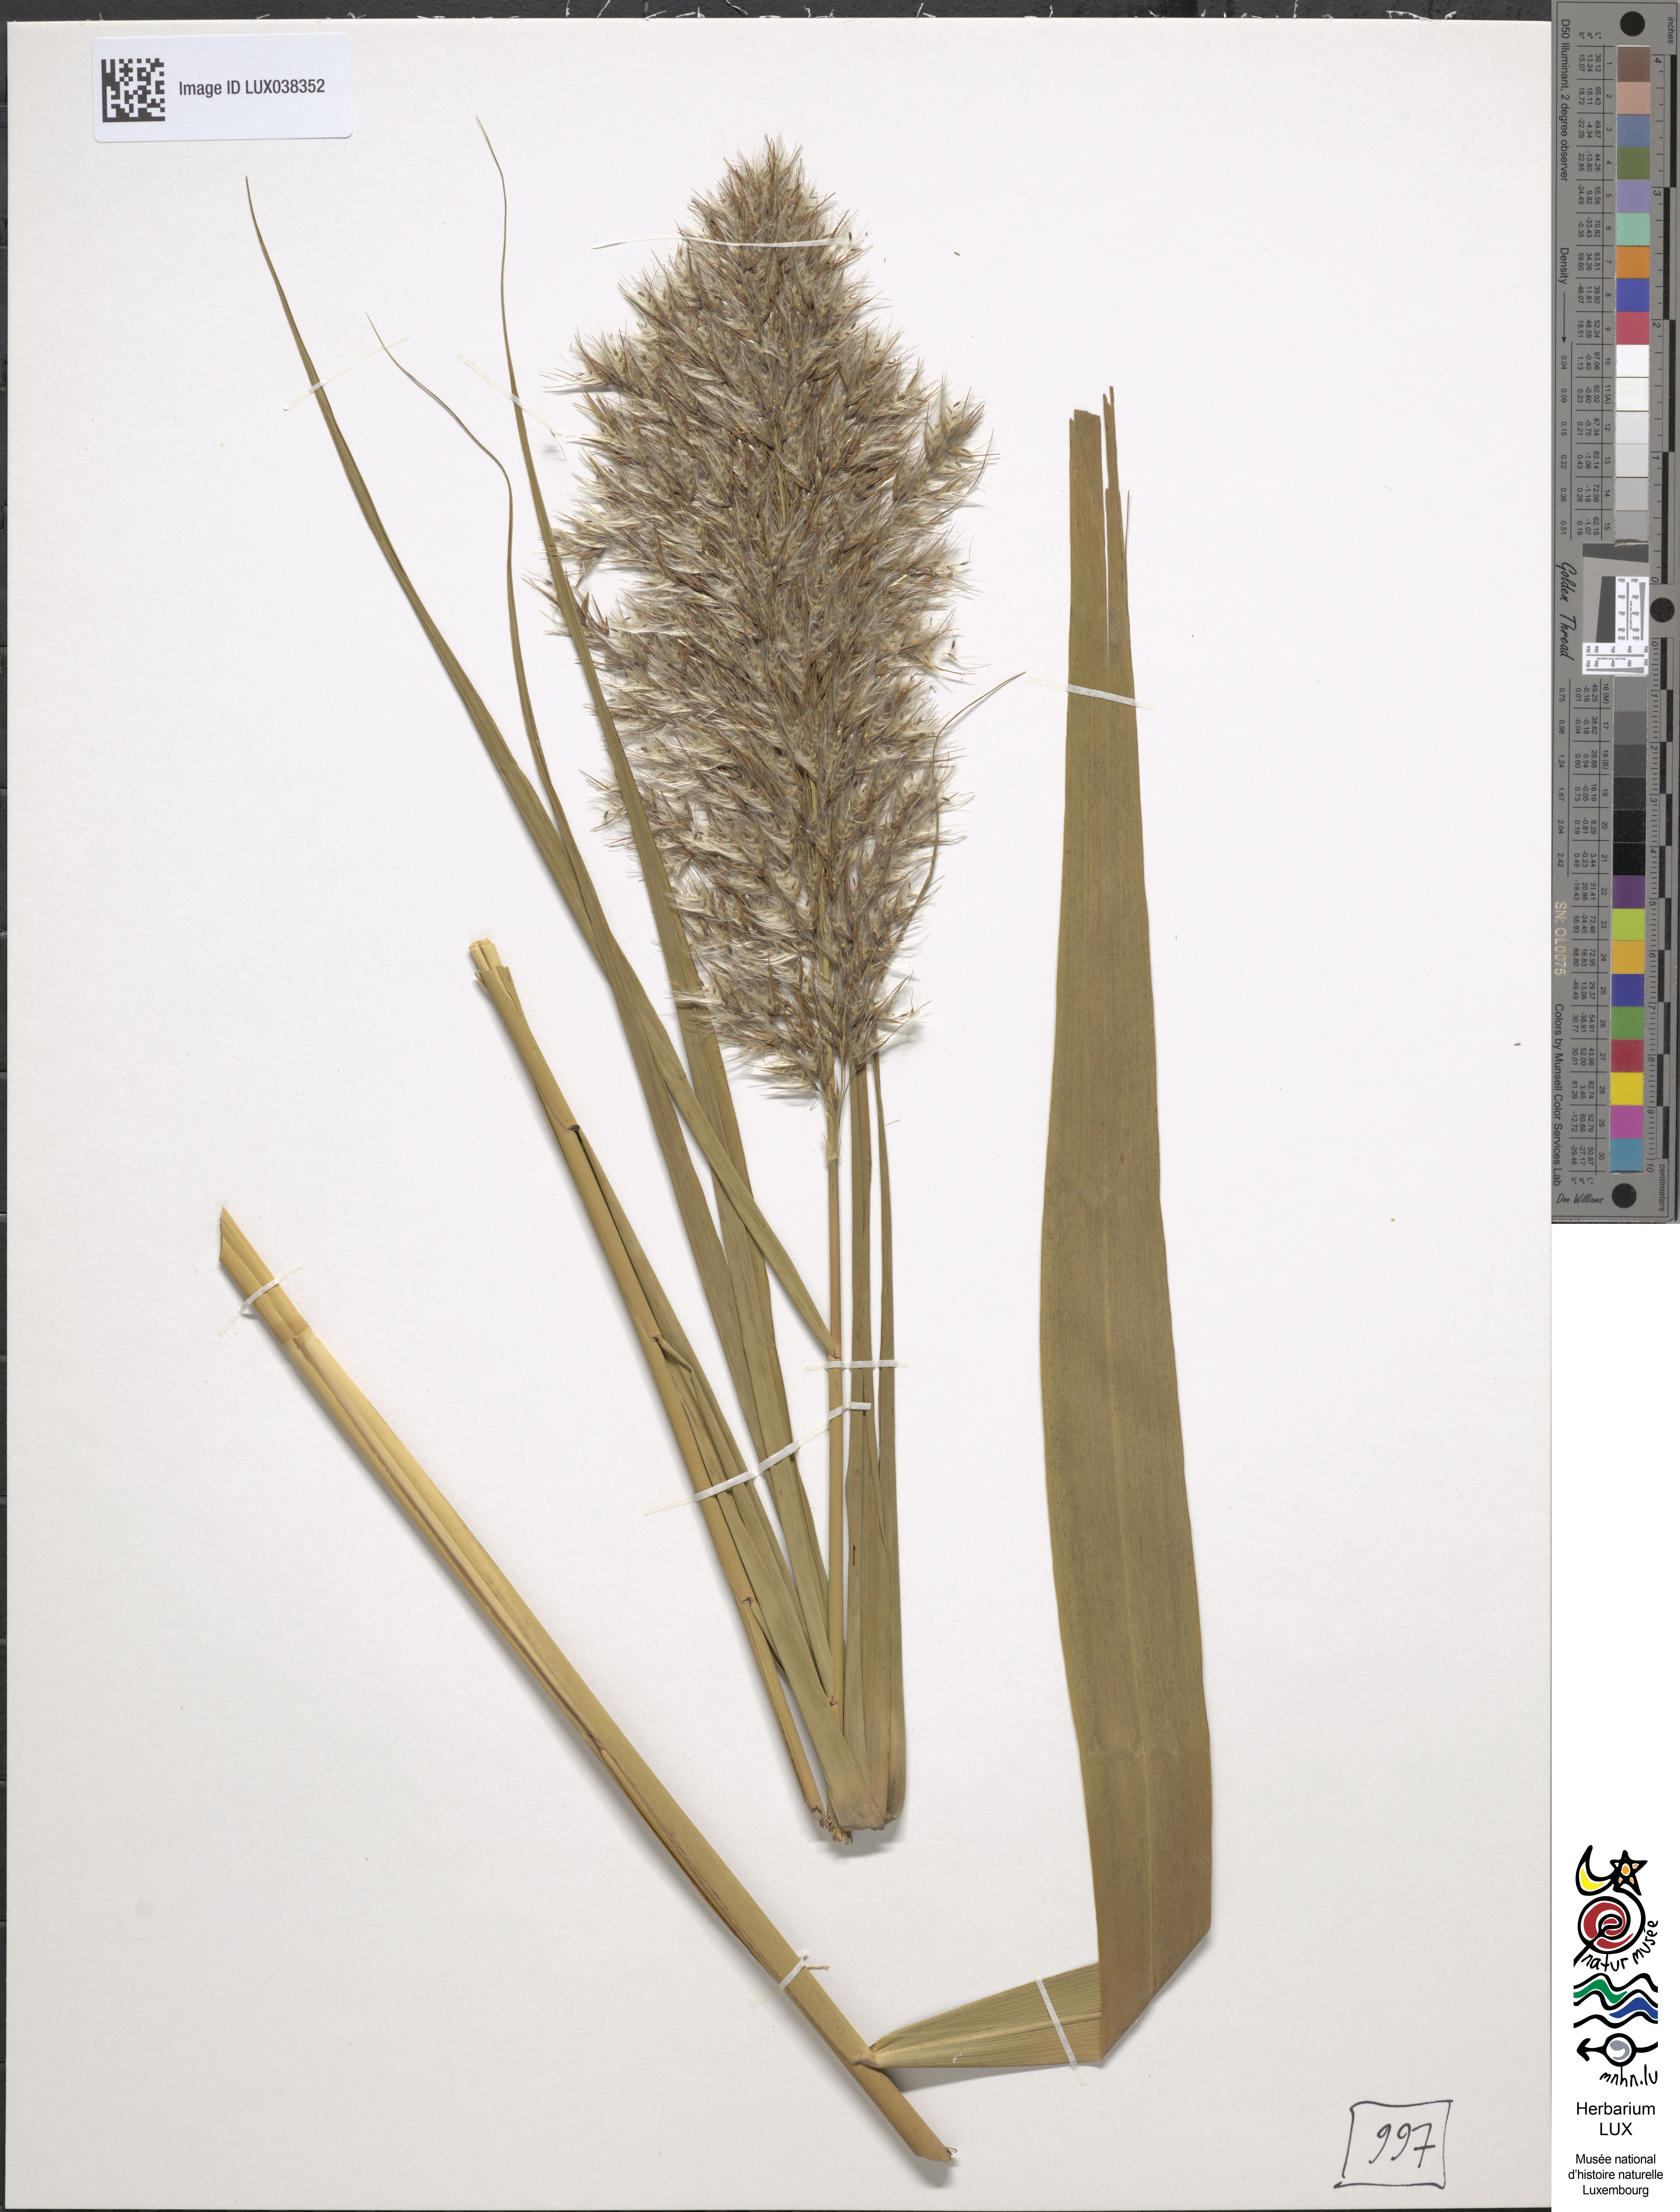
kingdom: Plantae
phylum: Tracheophyta
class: Liliopsida
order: Poales
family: Poaceae
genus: Arundo
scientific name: Arundo pseudophragmites
